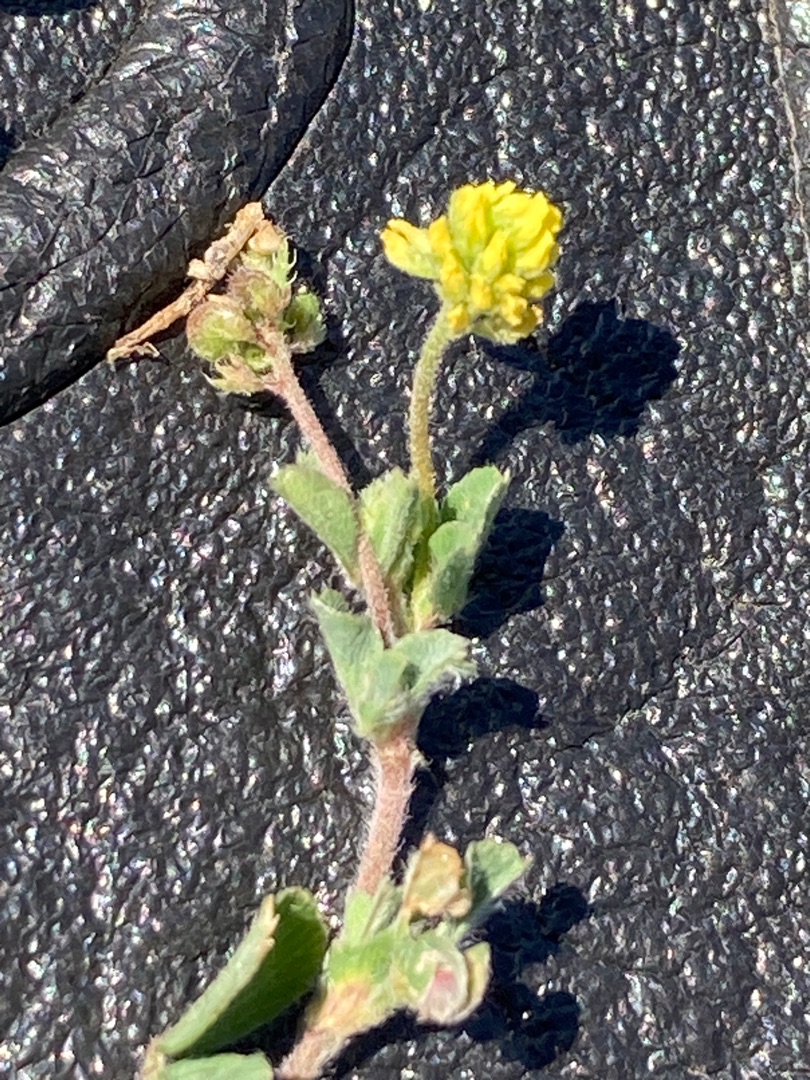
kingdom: Plantae
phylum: Tracheophyta
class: Magnoliopsida
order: Fabales
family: Fabaceae
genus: Medicago
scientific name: Medicago lupulina
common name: Humle-sneglebælg
